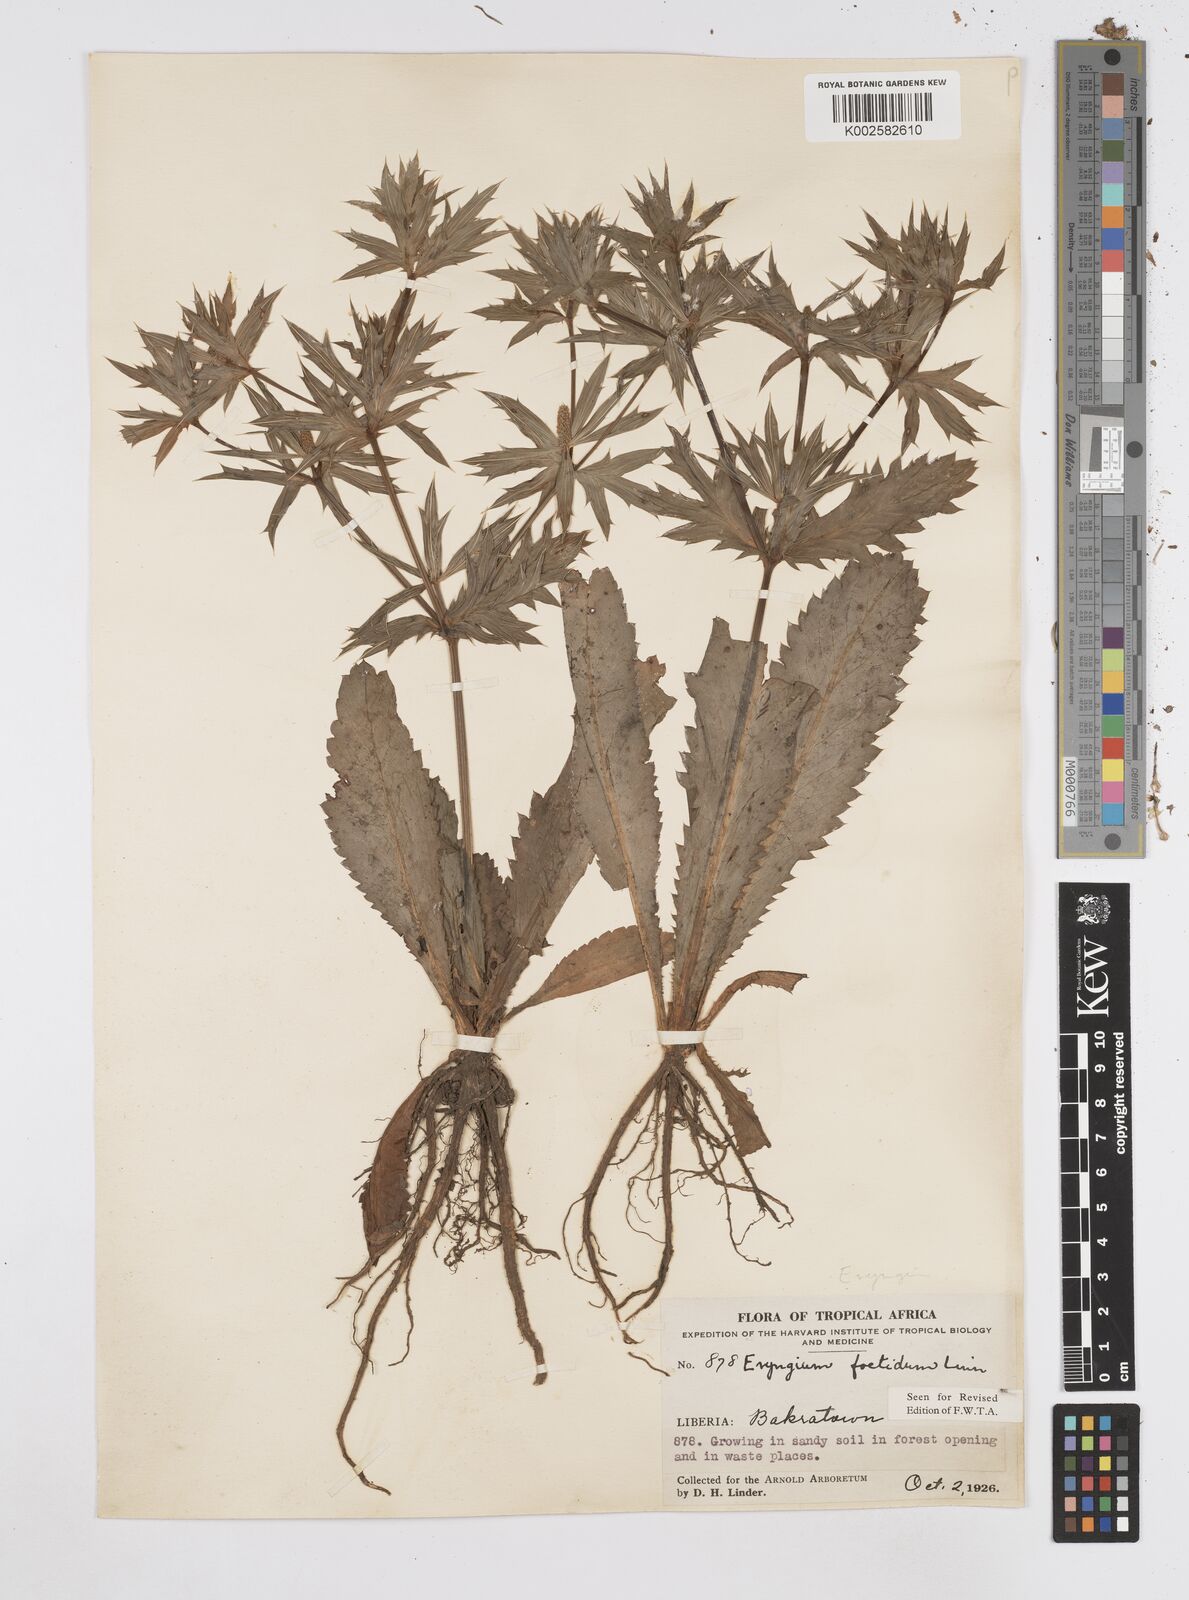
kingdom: Plantae
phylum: Tracheophyta
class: Magnoliopsida
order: Apiales
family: Apiaceae
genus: Eryngium
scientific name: Eryngium foetidum
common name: Fitweed
